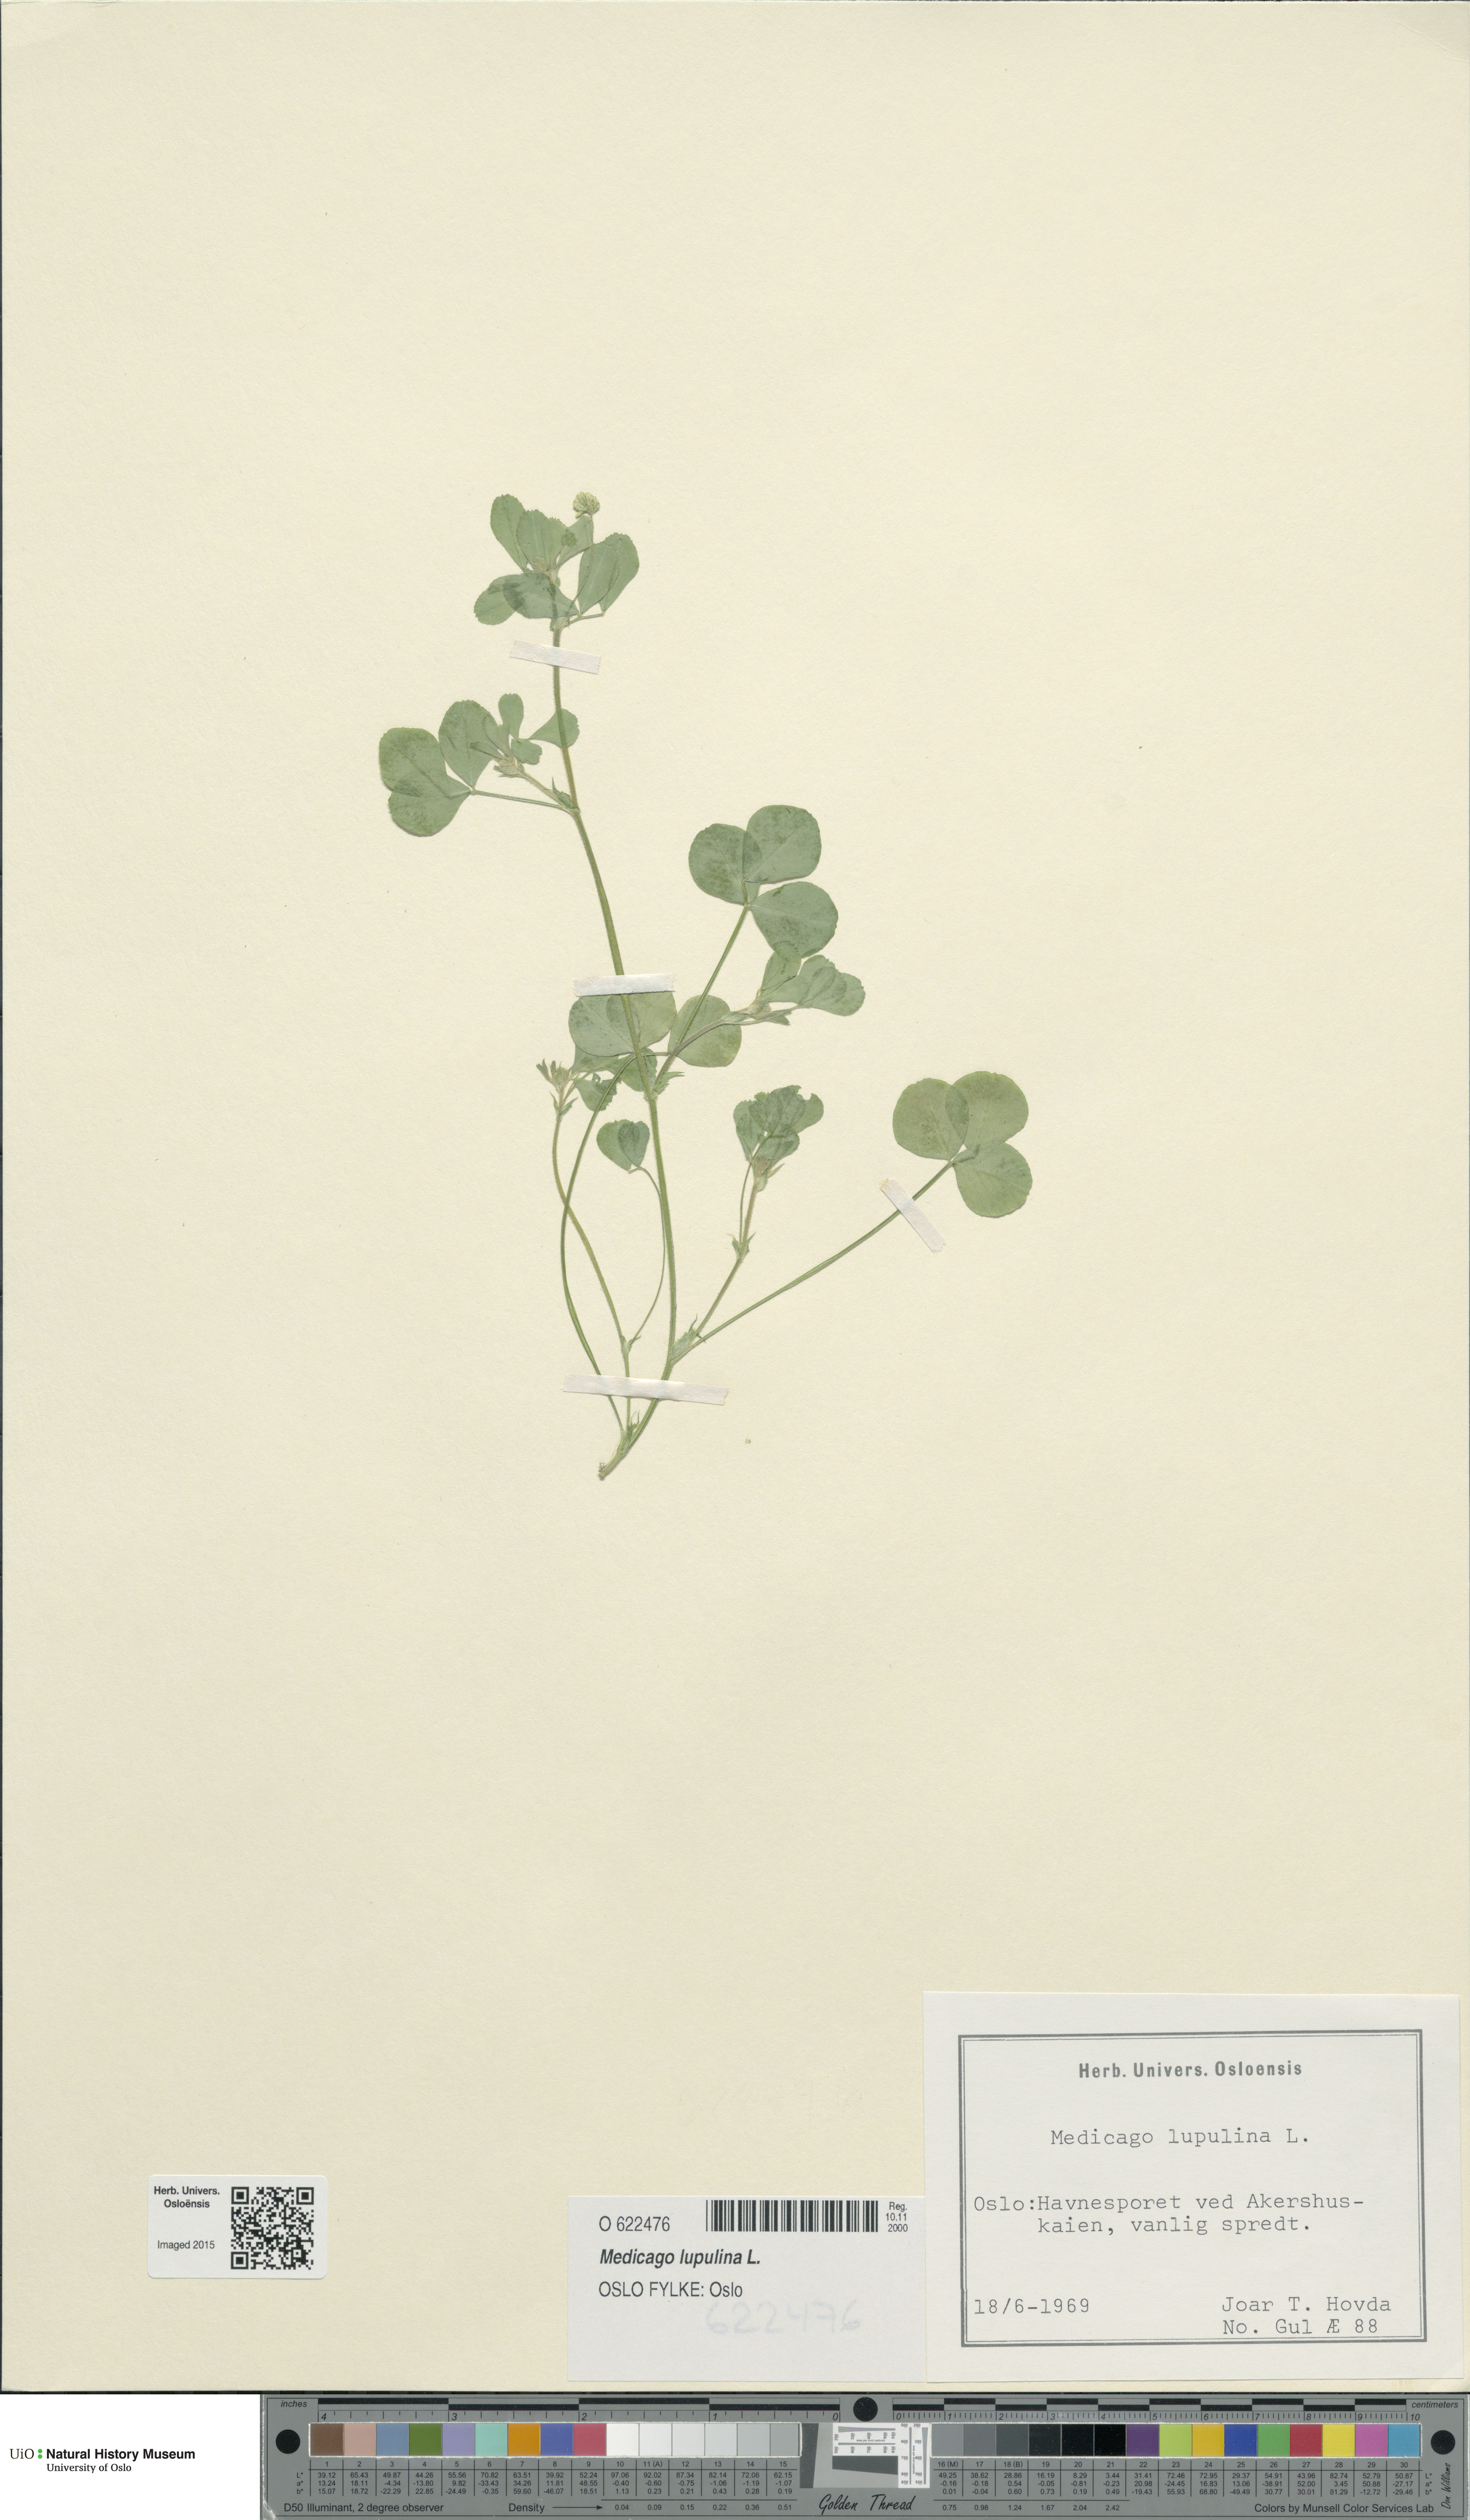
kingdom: Plantae
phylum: Tracheophyta
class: Magnoliopsida
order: Fabales
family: Fabaceae
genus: Medicago
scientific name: Medicago lupulina
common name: Black medick
